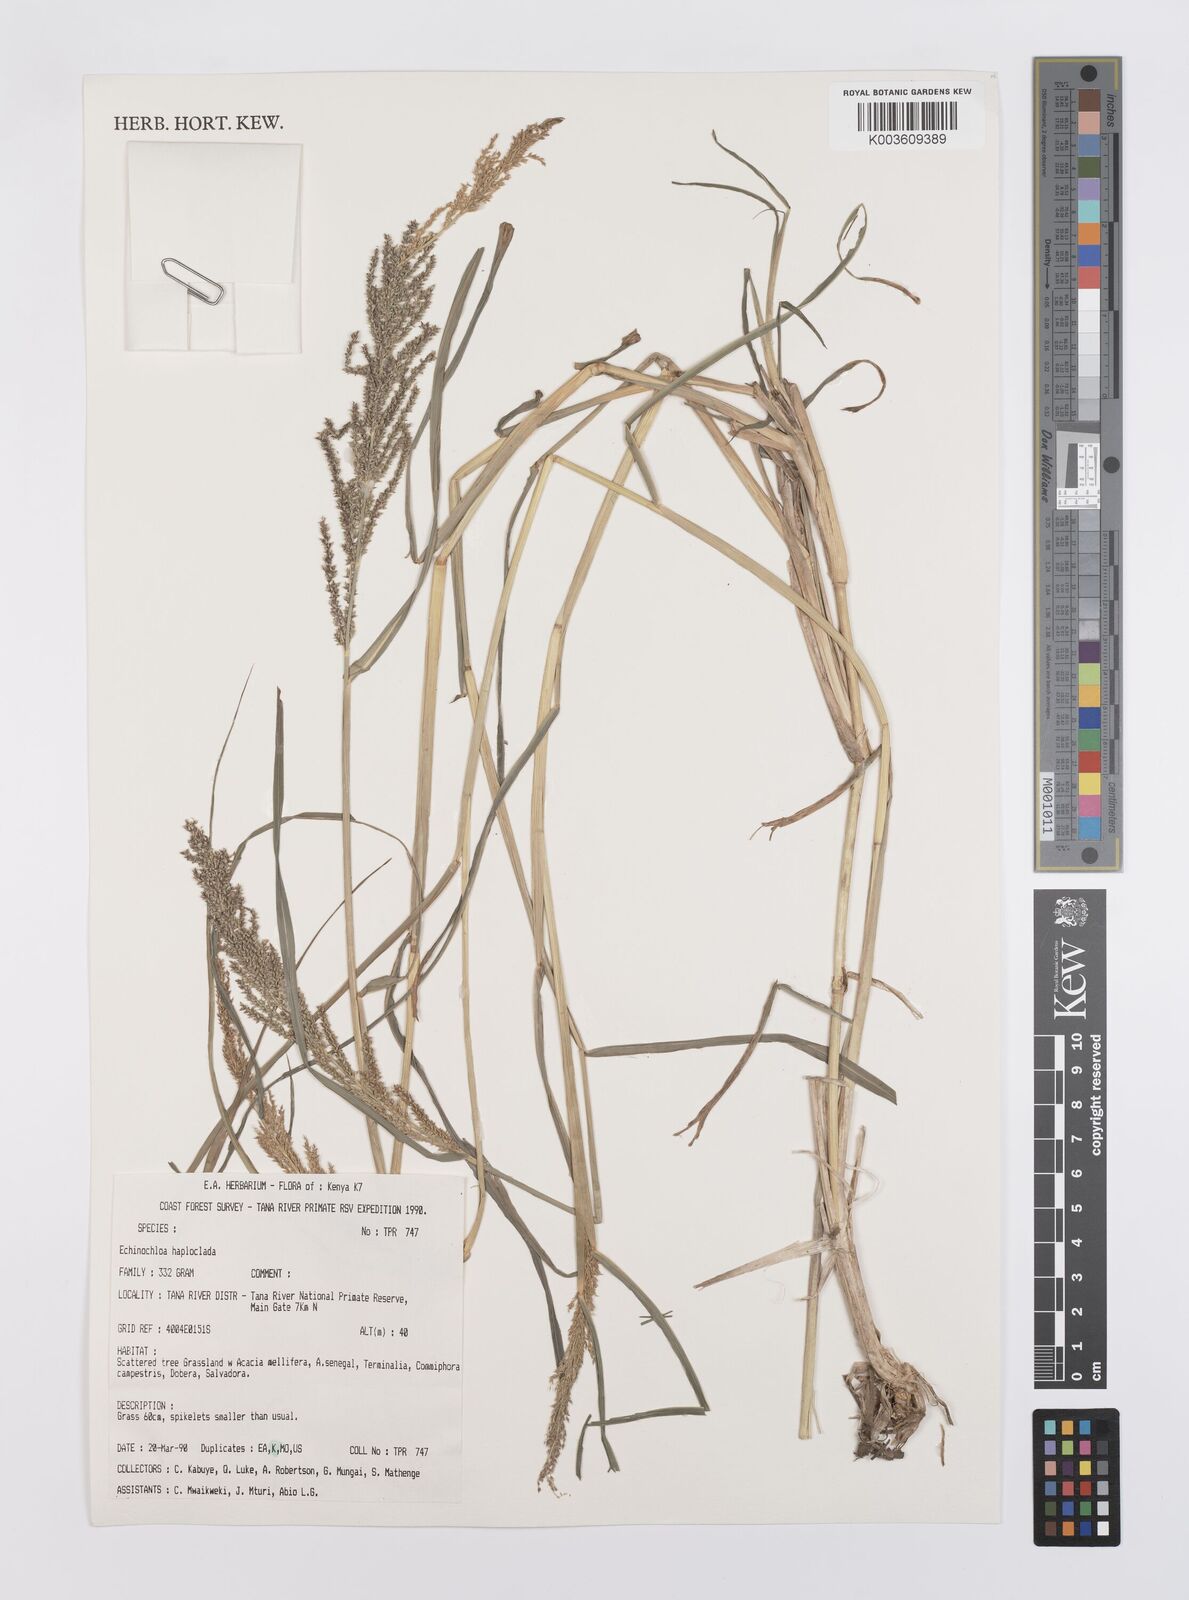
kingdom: Plantae
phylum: Tracheophyta
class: Liliopsida
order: Poales
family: Poaceae
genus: Echinochloa
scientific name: Echinochloa haploclada
